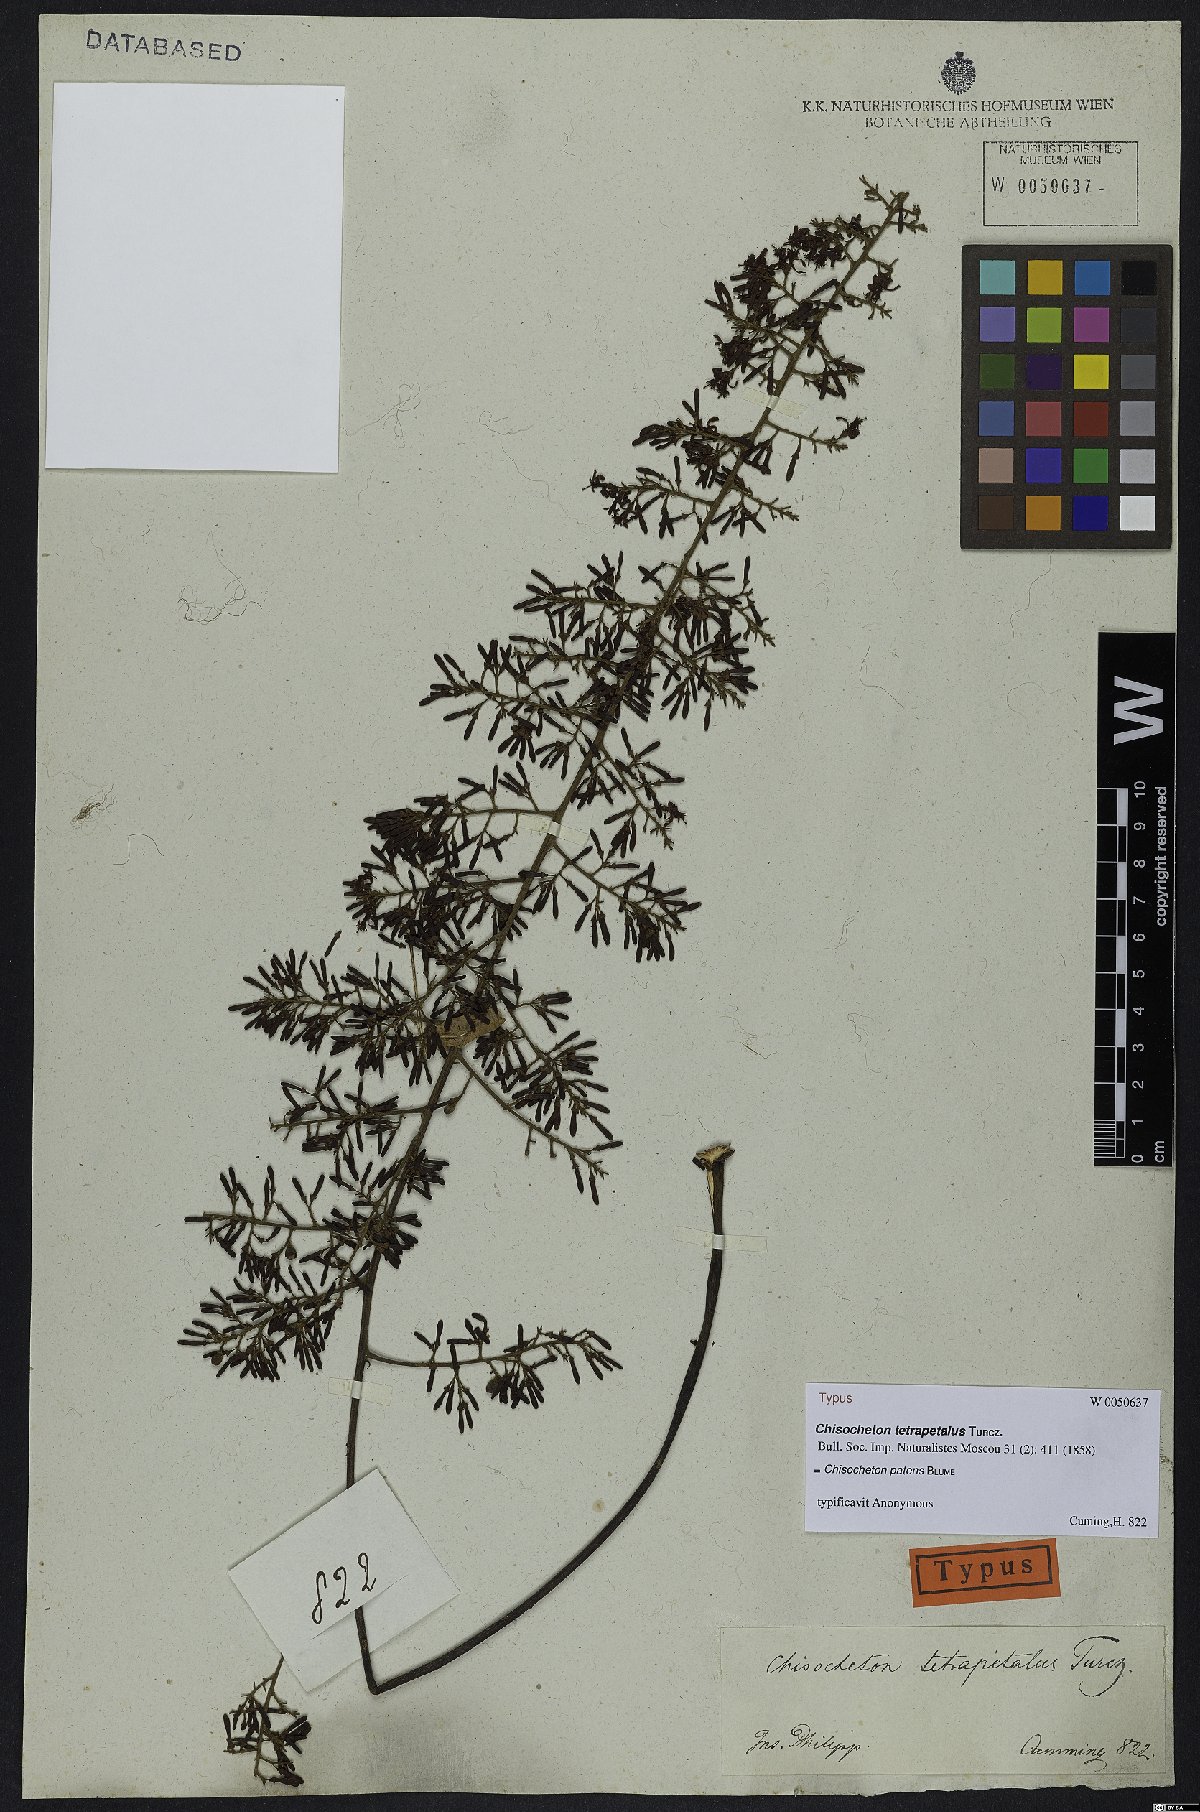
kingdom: Plantae
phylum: Tracheophyta
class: Magnoliopsida
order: Sapindales
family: Meliaceae
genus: Chisocheton
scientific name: Chisocheton patens
